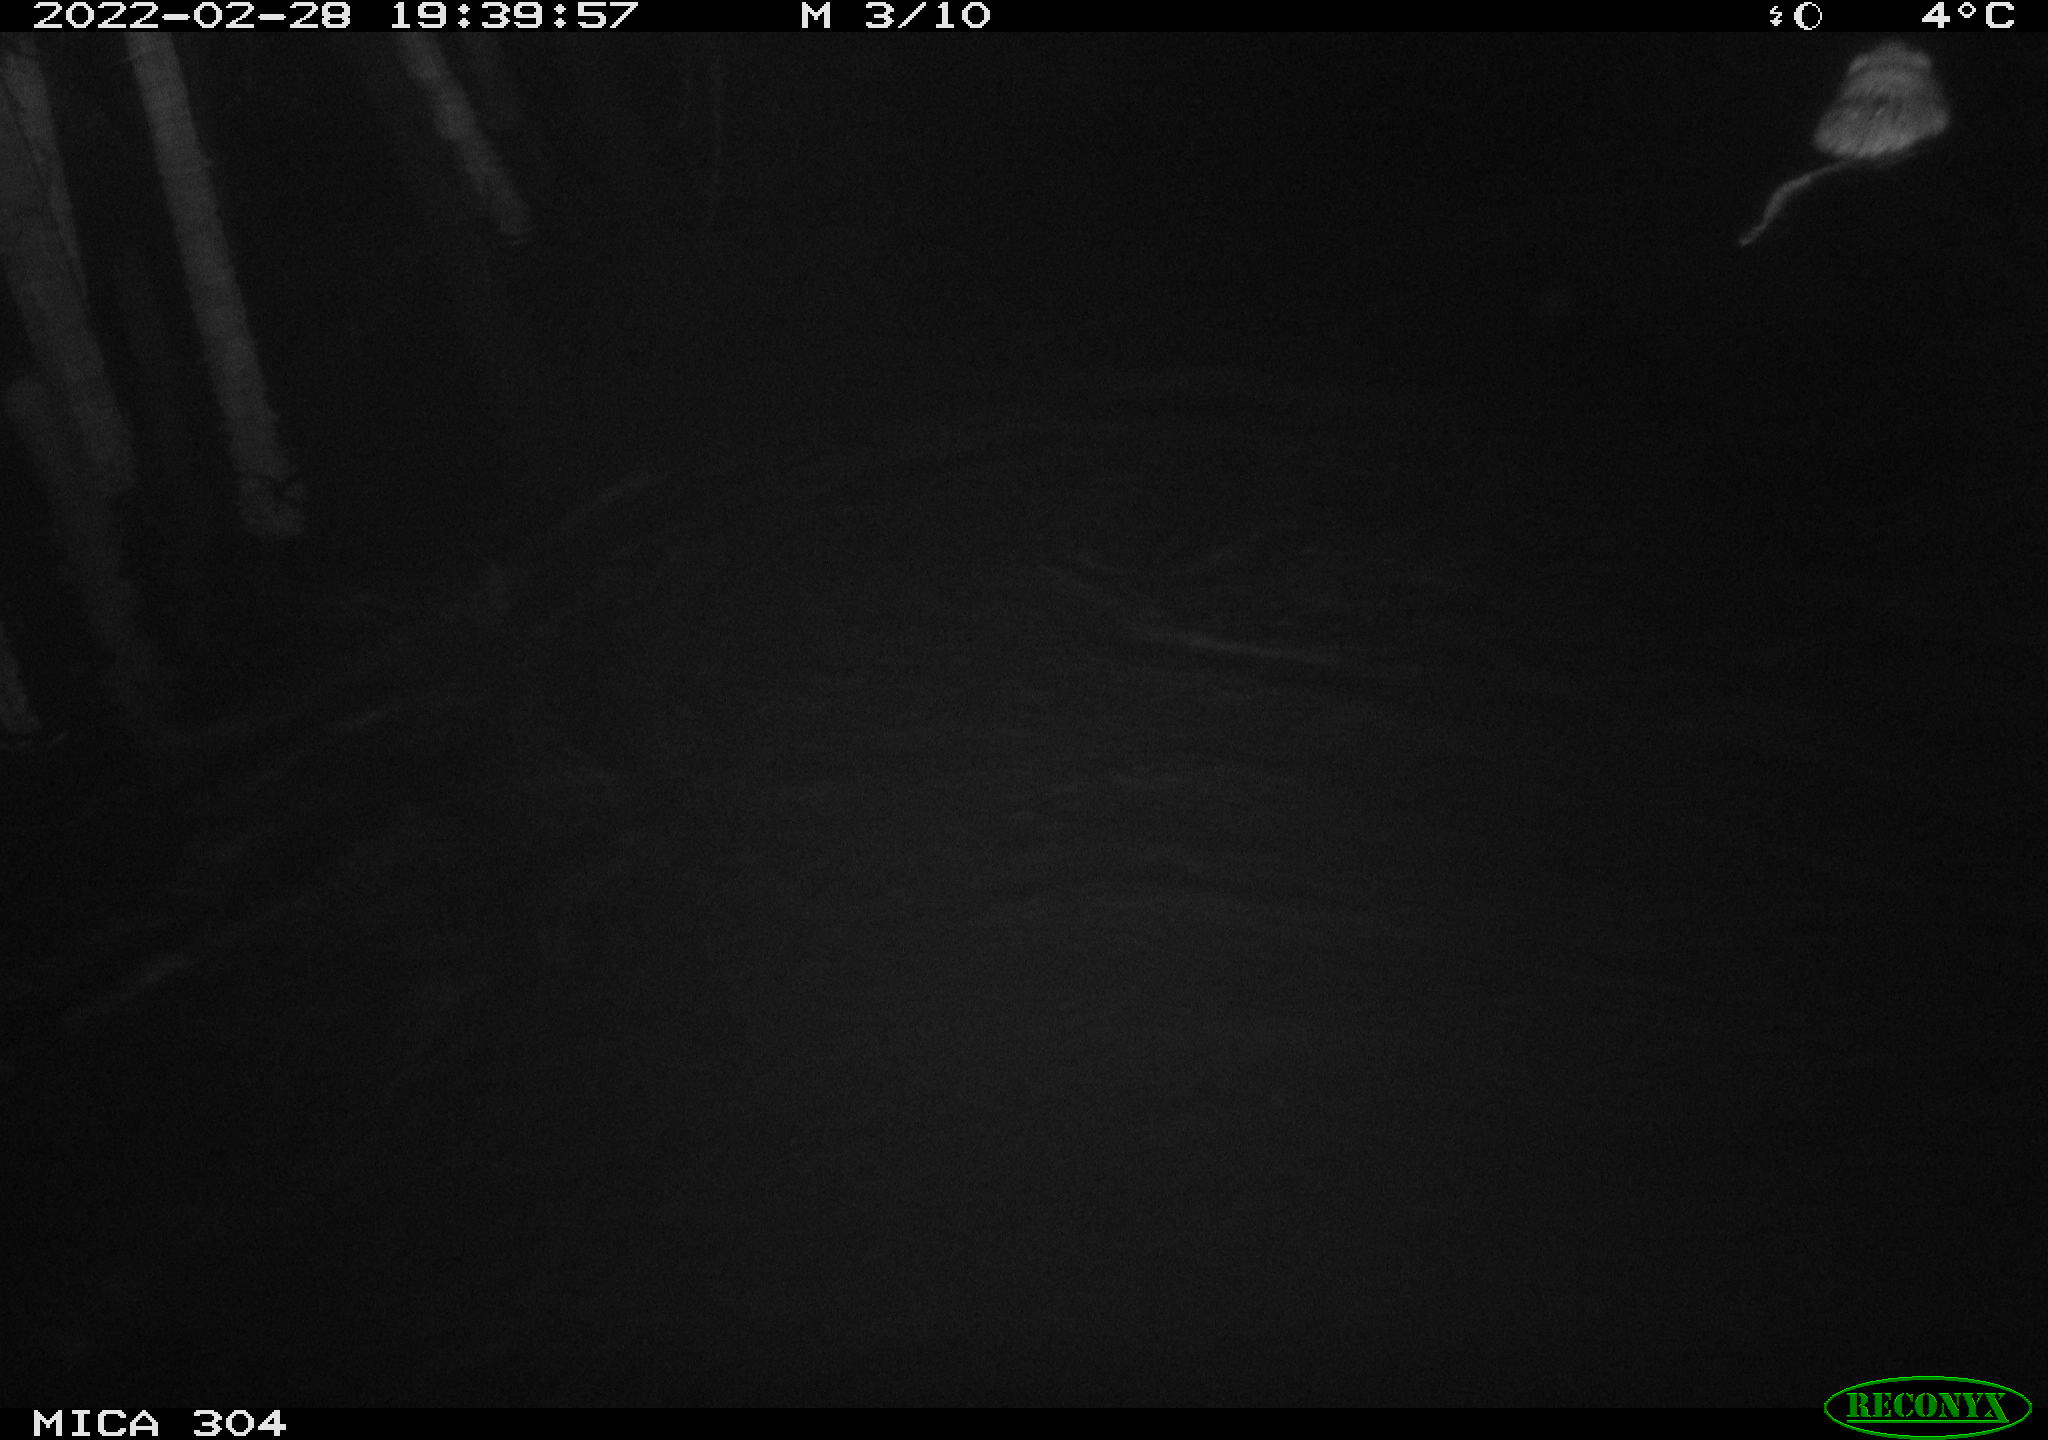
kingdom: Animalia
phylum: Chordata
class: Mammalia
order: Rodentia
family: Cricetidae
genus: Ondatra
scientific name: Ondatra zibethicus
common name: Muskrat
